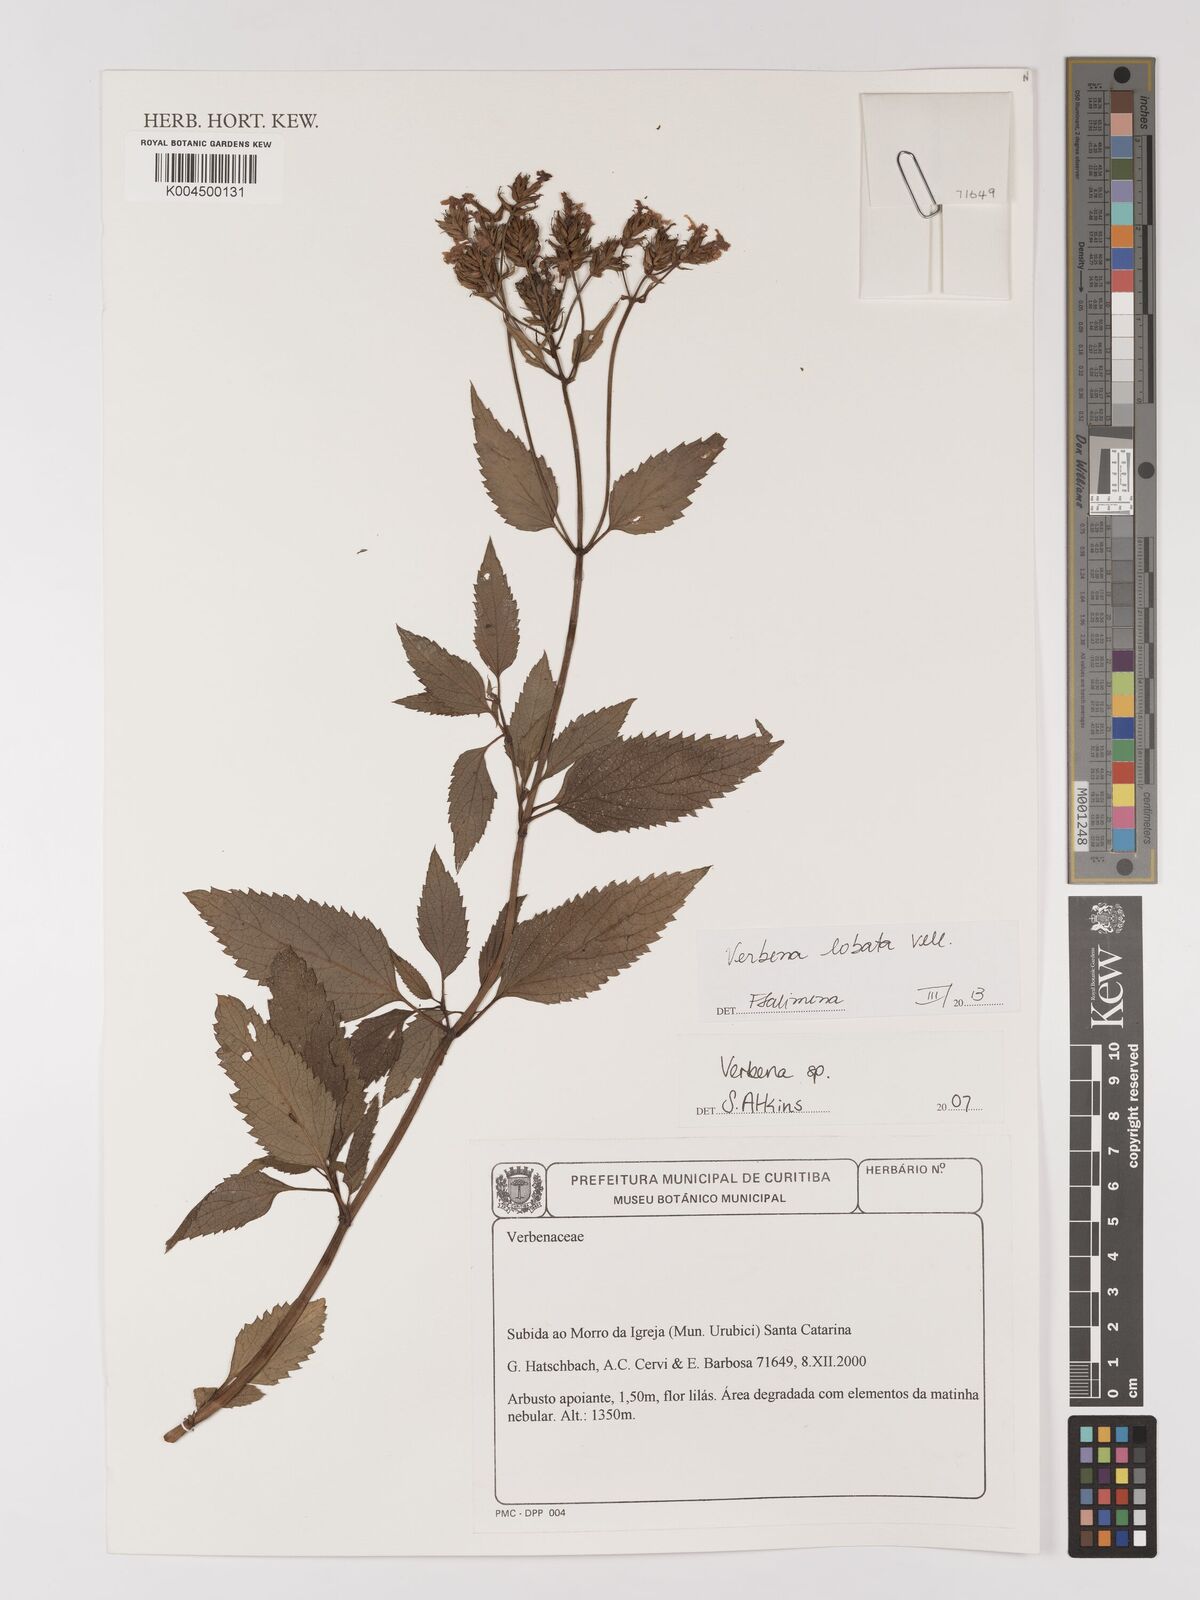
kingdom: Plantae
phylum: Tracheophyta
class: Magnoliopsida
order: Lamiales
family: Verbenaceae
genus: Verbena
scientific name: Verbena lobata
